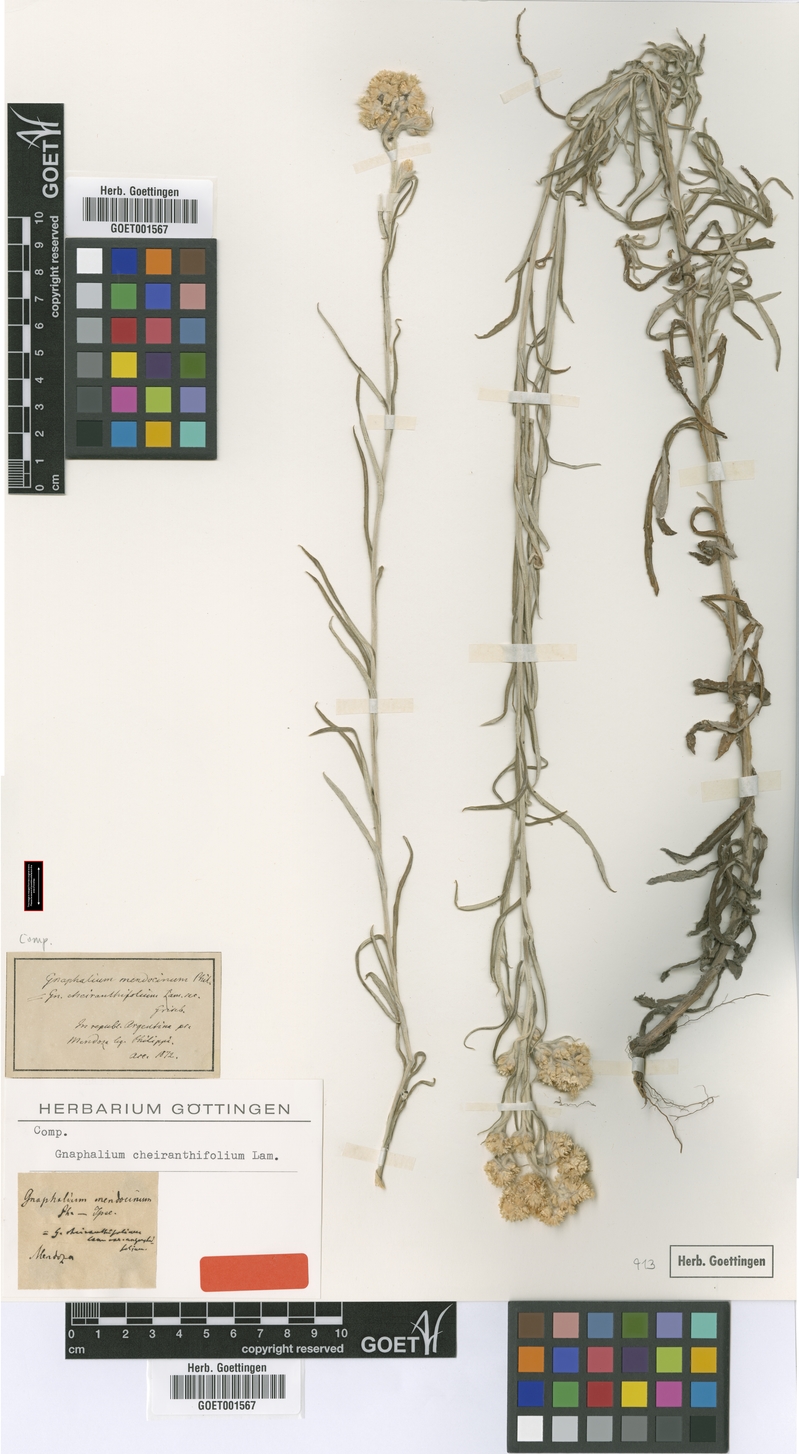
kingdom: Plantae
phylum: Tracheophyta
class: Magnoliopsida
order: Asterales
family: Asteraceae
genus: Pseudognaphalium
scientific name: Pseudognaphalium cheiranthifolium
